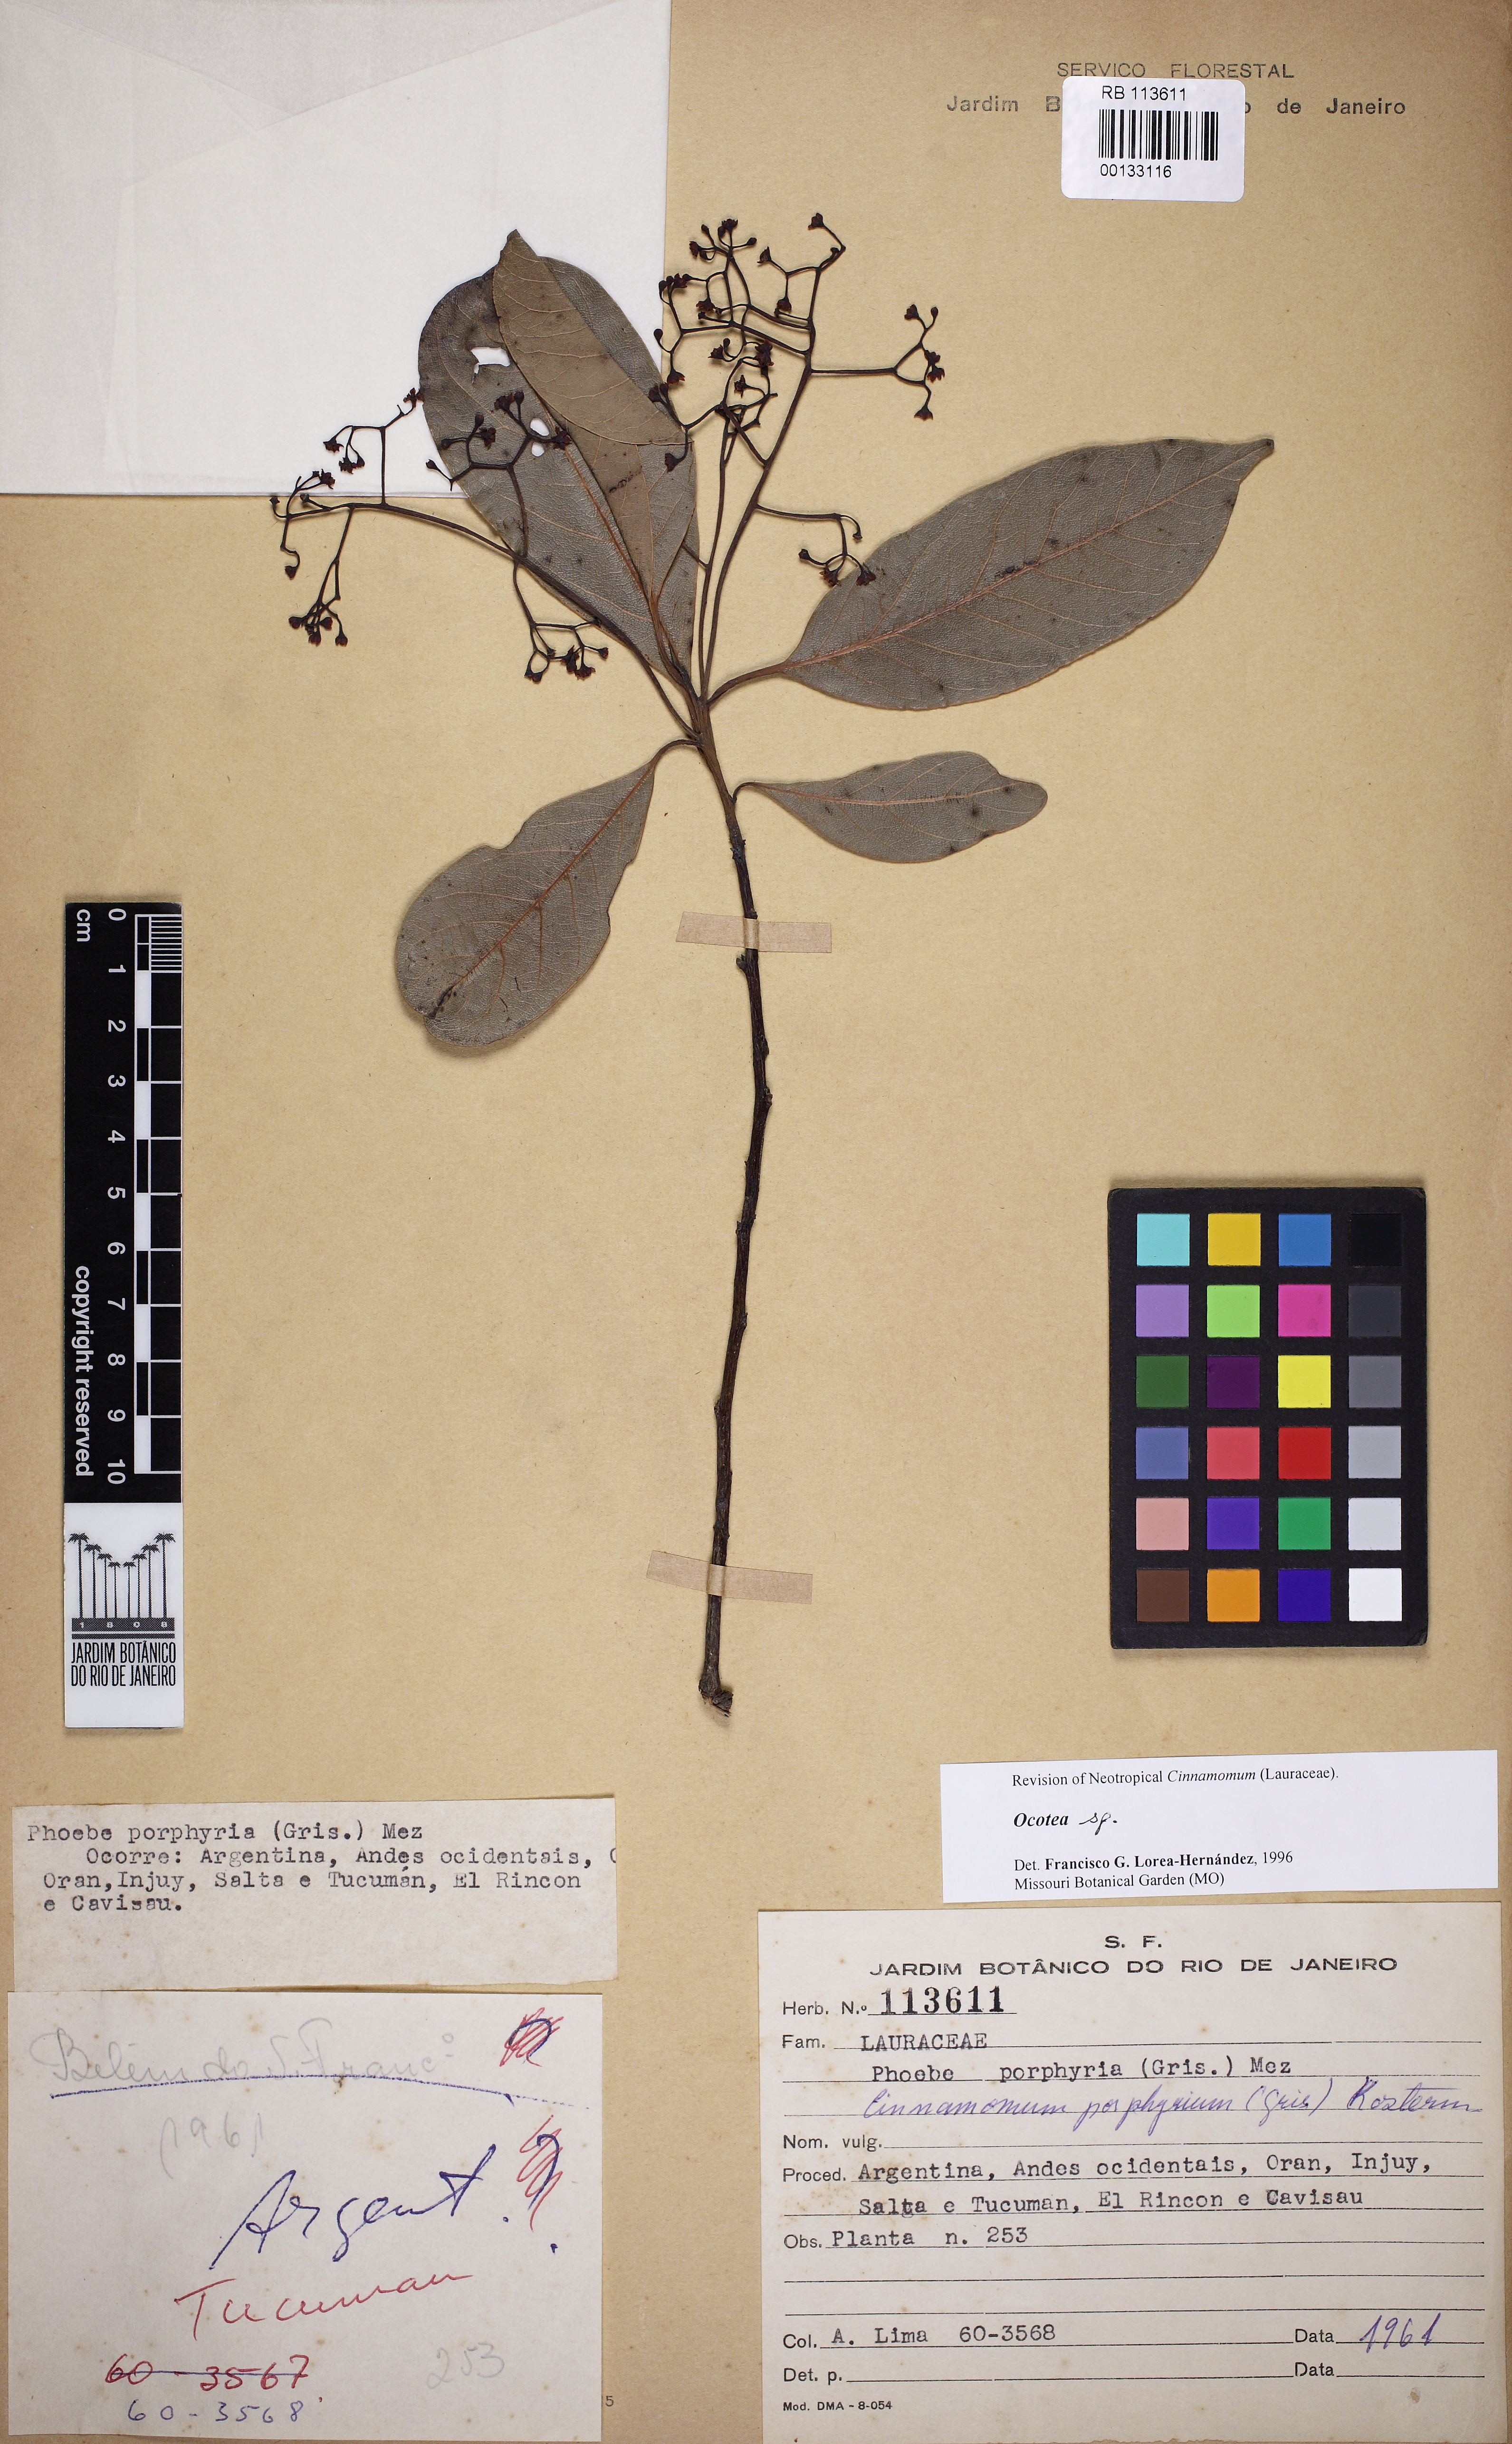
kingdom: Plantae
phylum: Tracheophyta
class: Magnoliopsida
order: Laurales
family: Lauraceae
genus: Ocotea
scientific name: Ocotea
